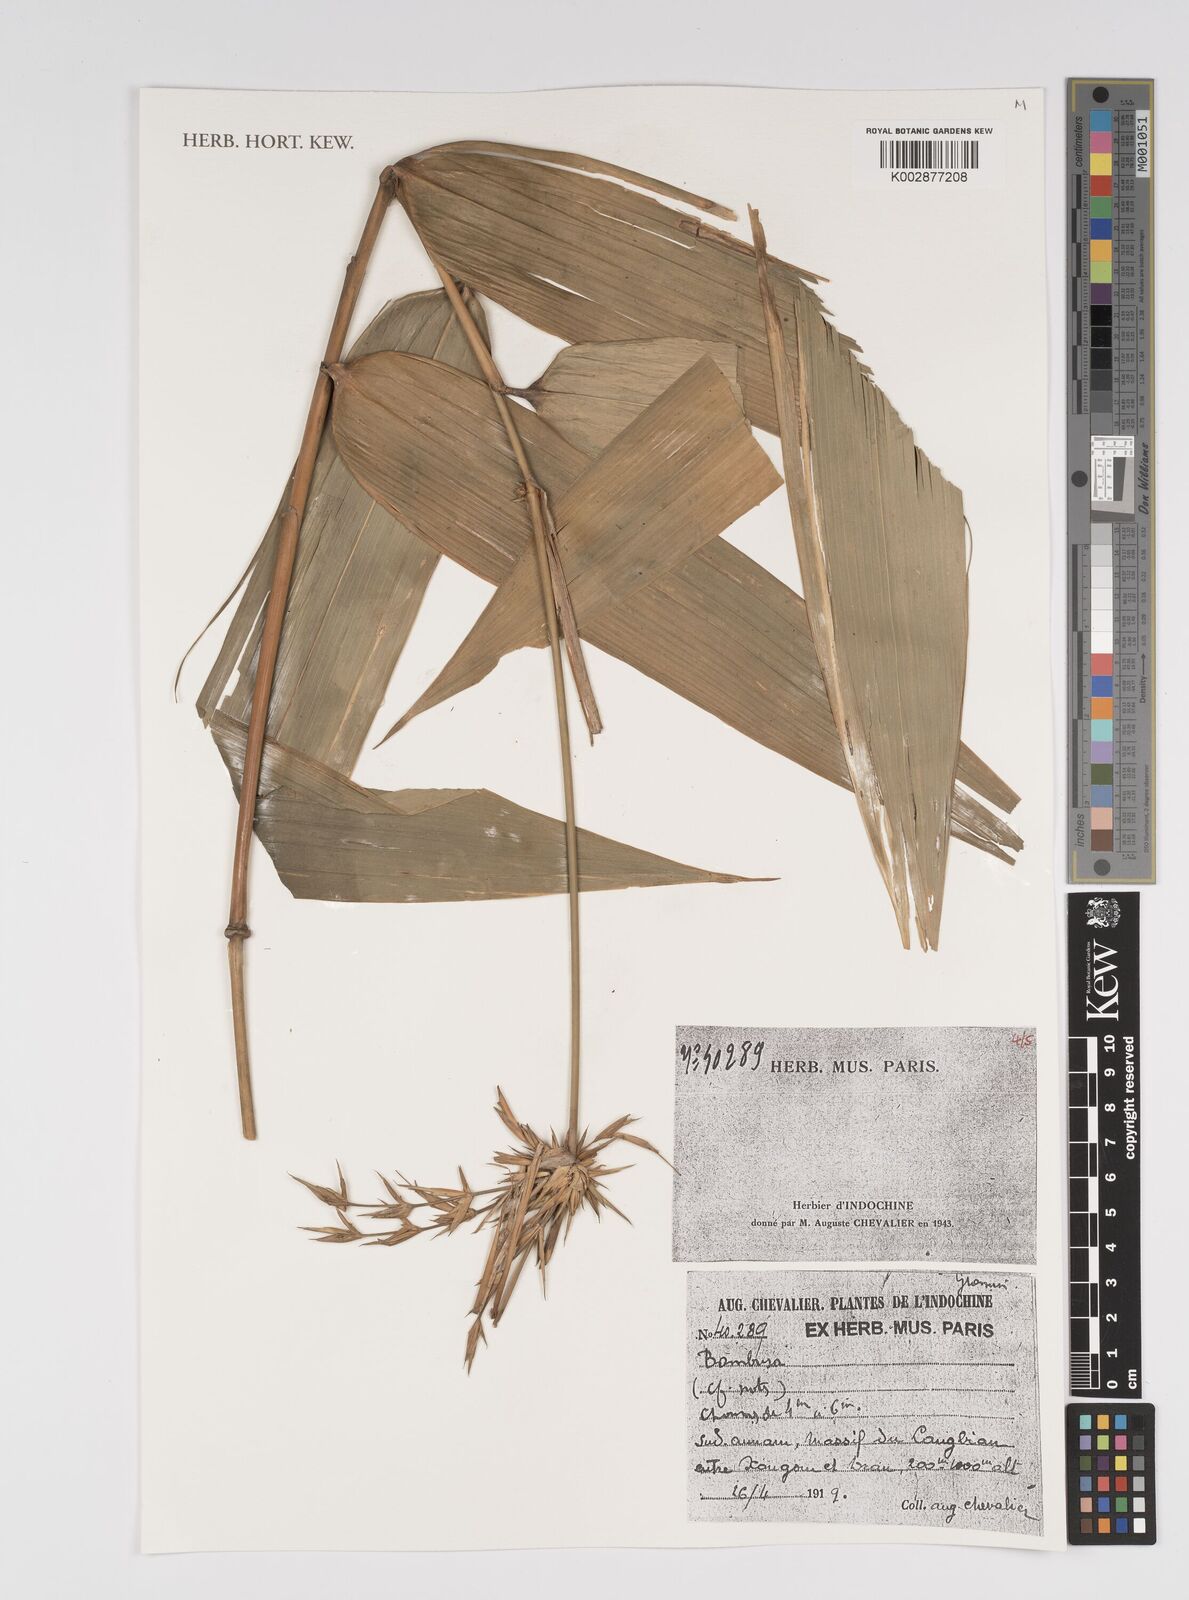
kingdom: Plantae
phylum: Tracheophyta
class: Liliopsida
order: Poales
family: Poaceae
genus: Bambusa
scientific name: Bambusa
